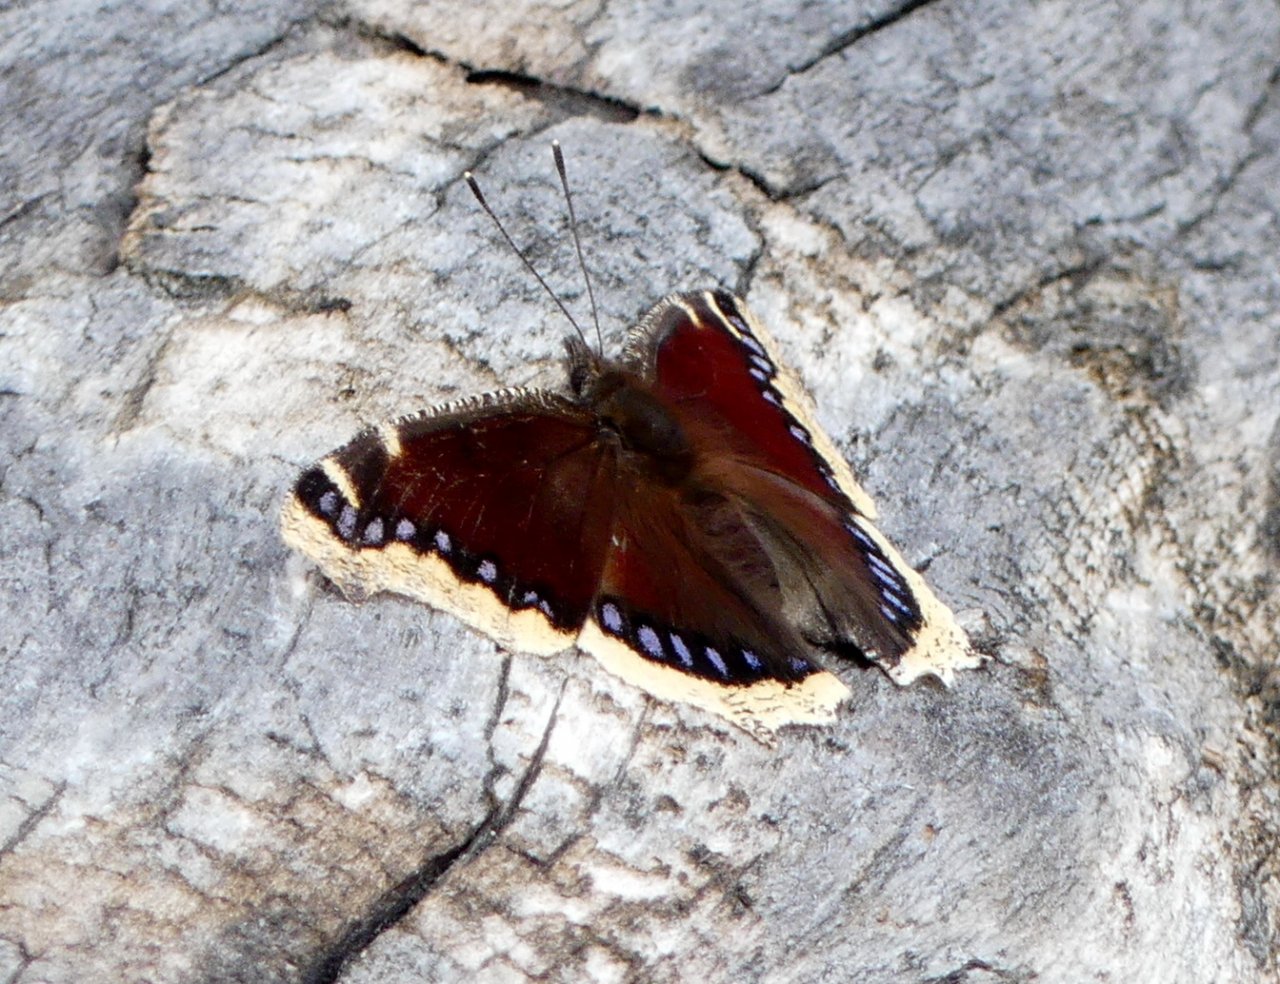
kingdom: Animalia
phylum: Arthropoda
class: Insecta
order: Lepidoptera
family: Nymphalidae
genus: Nymphalis
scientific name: Nymphalis antiopa
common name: Mourning Cloak
